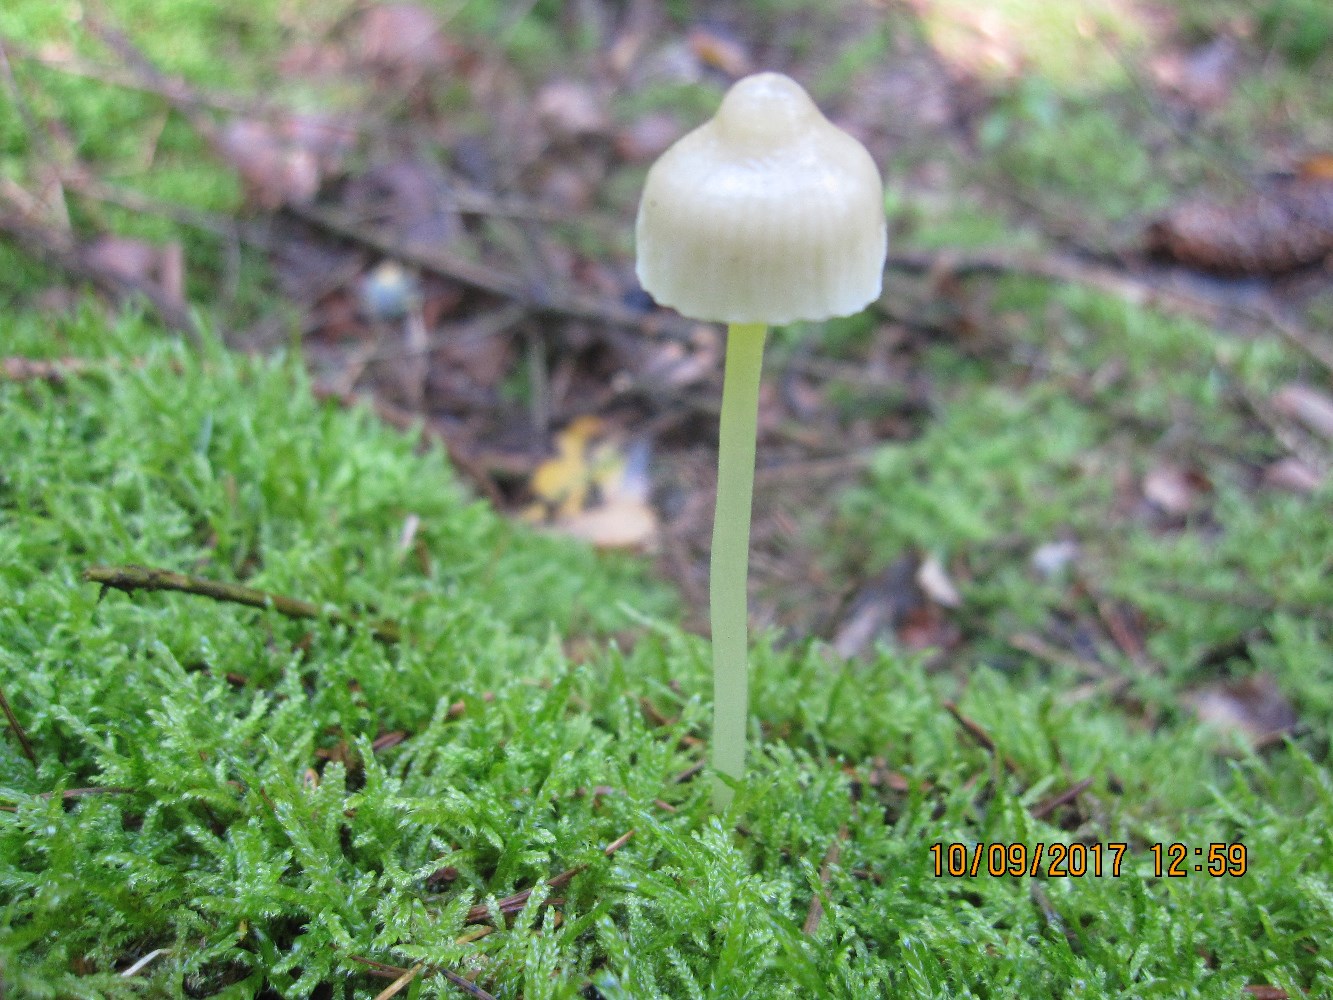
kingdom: Fungi
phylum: Basidiomycota
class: Agaricomycetes
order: Agaricales
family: Mycenaceae
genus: Mycena
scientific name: Mycena epipterygia
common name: gulstokket huesvamp
